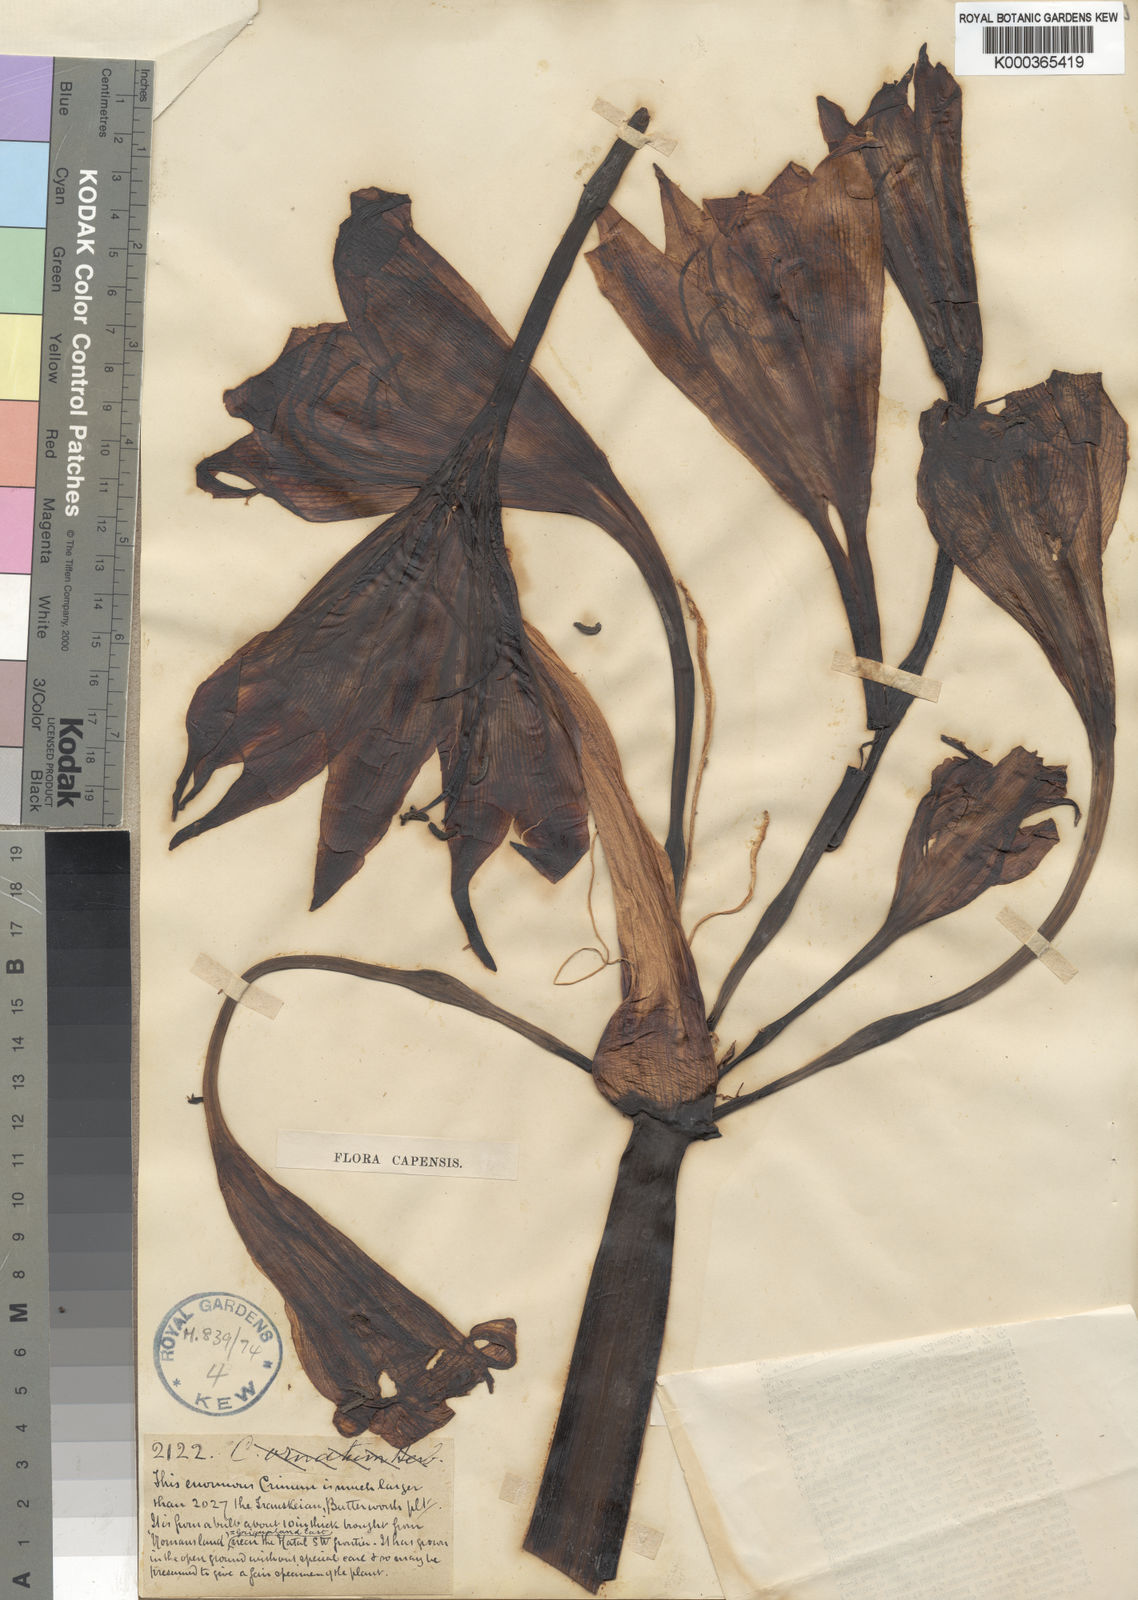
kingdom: Plantae
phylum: Tracheophyta
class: Liliopsida
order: Asparagales
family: Amaryllidaceae
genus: Crinum
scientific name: Crinum macowanii
